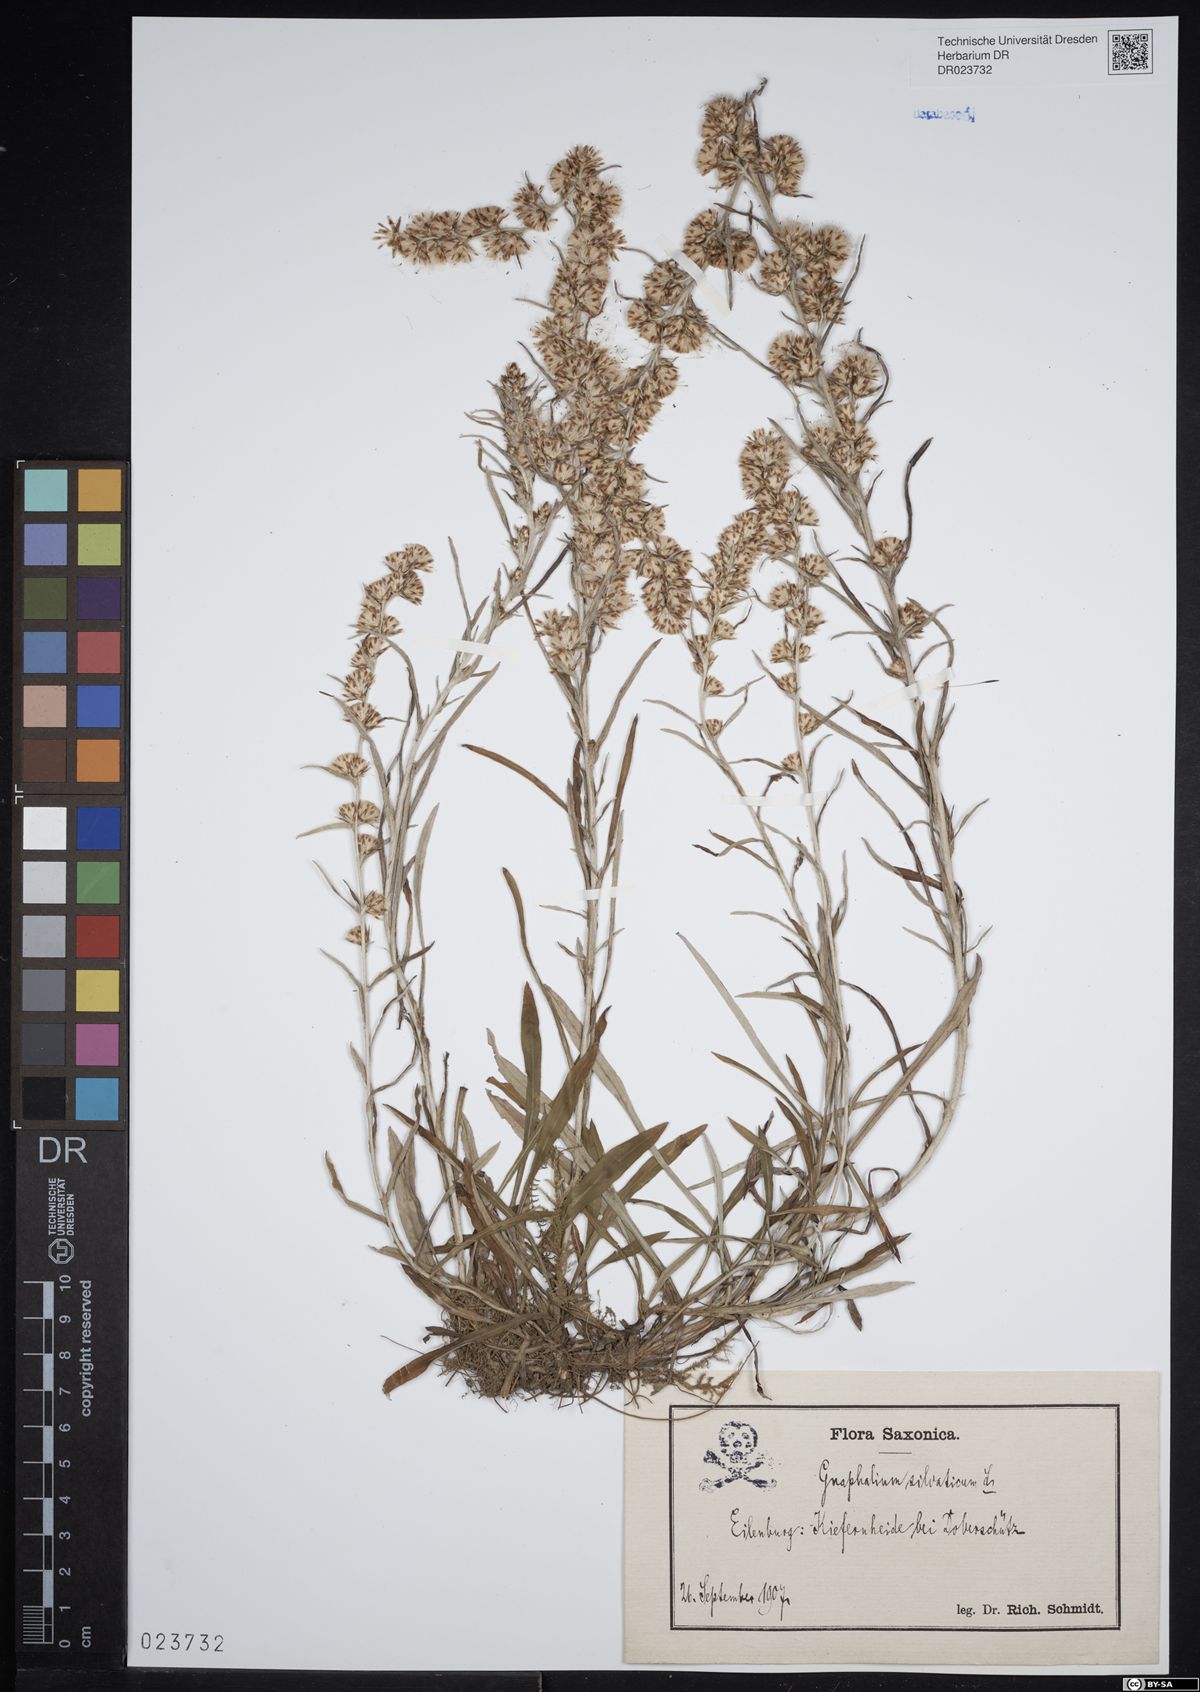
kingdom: Plantae
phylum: Tracheophyta
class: Magnoliopsida
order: Asterales
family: Asteraceae
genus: Omalotheca
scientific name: Omalotheca sylvatica
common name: Heath cudweed
